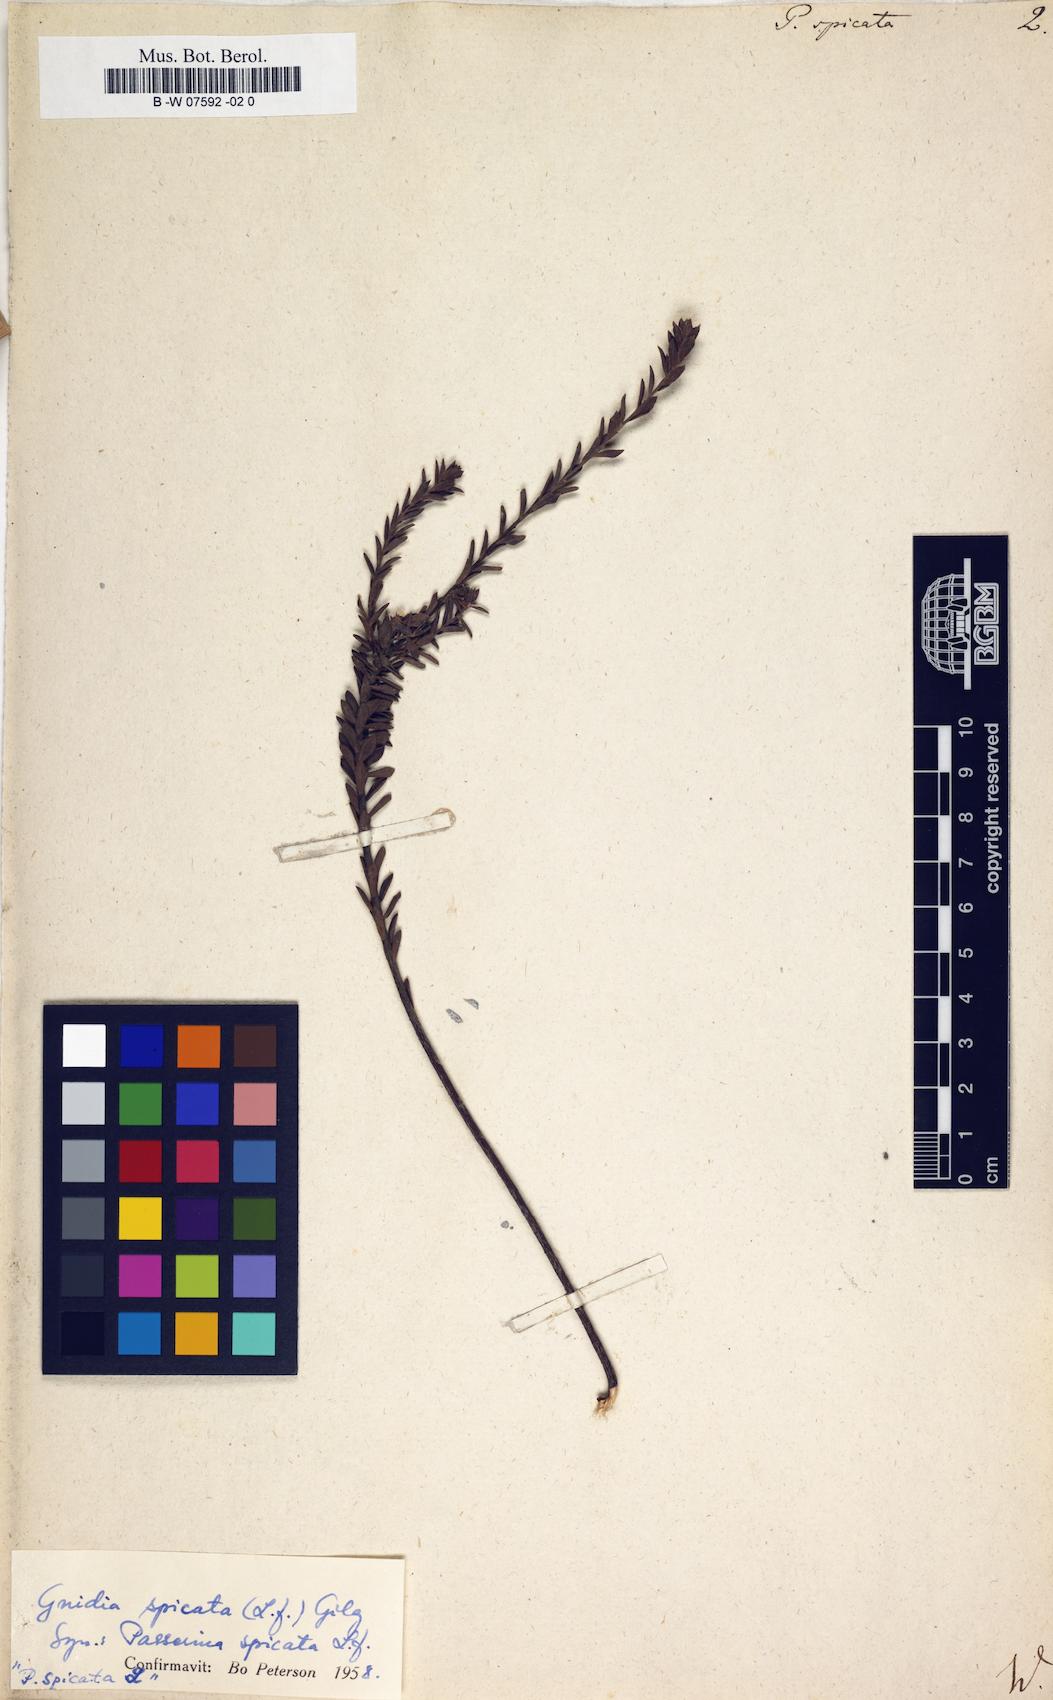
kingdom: Plantae
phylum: Tracheophyta
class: Magnoliopsida
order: Malvales
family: Thymelaeaceae
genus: Gnidia
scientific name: Gnidia spicata
